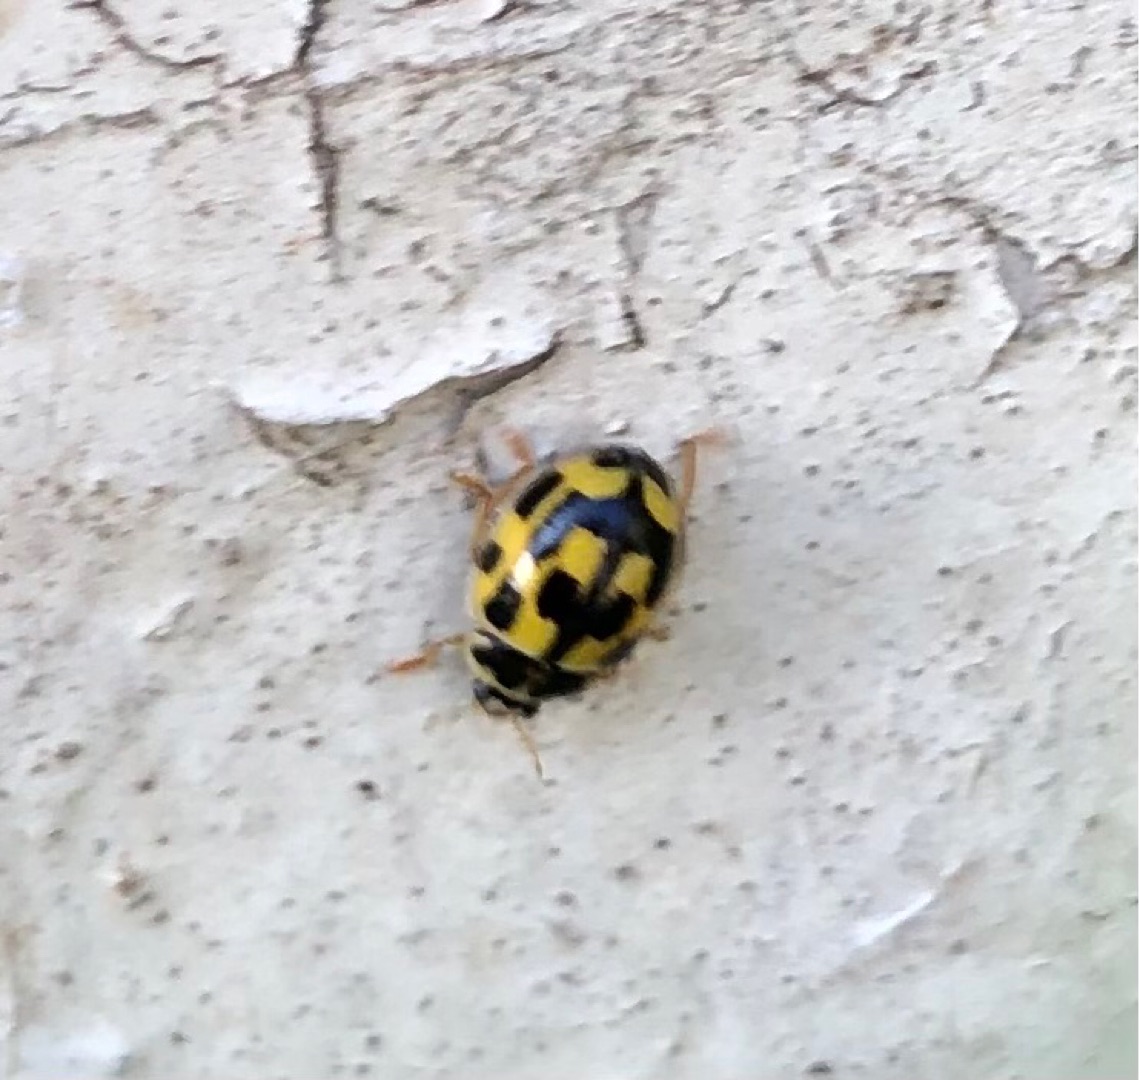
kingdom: Animalia
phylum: Arthropoda
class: Insecta
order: Coleoptera
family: Coccinellidae
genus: Propylaea
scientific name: Propylaea quatuordecimpunctata
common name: Skakbræt
